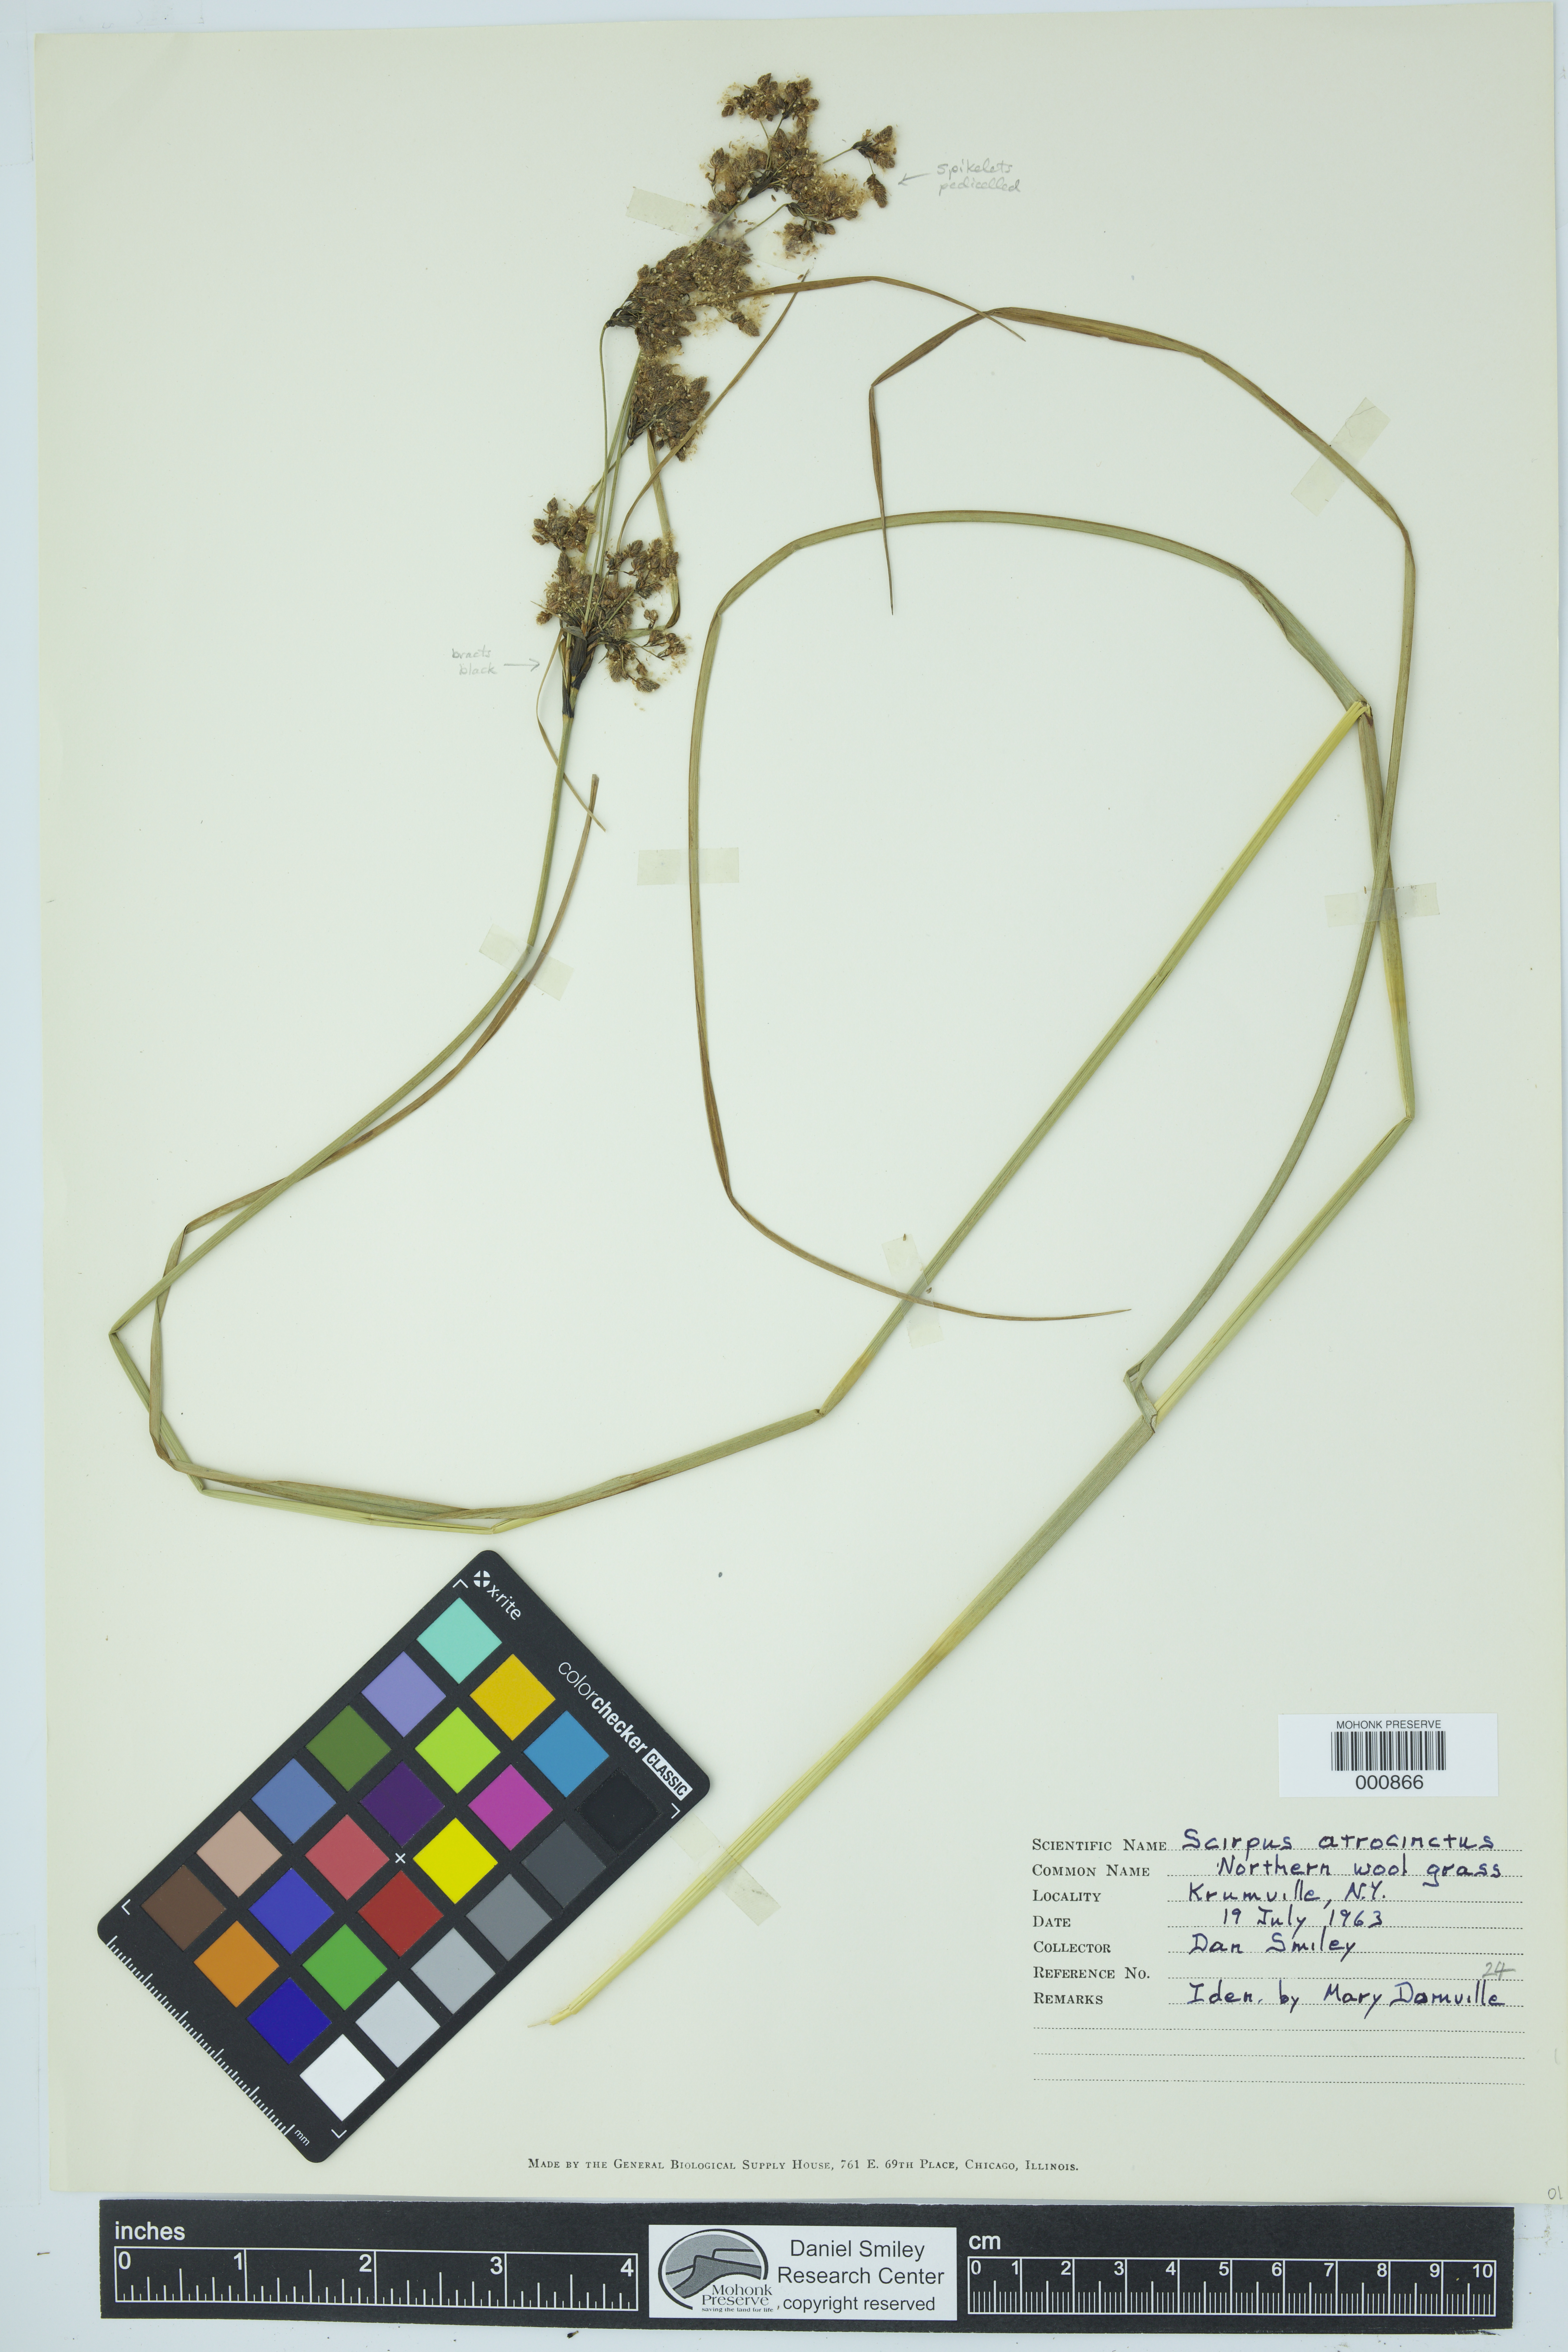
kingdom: Plantae
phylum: Tracheophyta
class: Liliopsida
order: Poales
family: Cyperaceae
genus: Scirpus
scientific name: Scirpus atrocinctus
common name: Black-girdled bulrush
